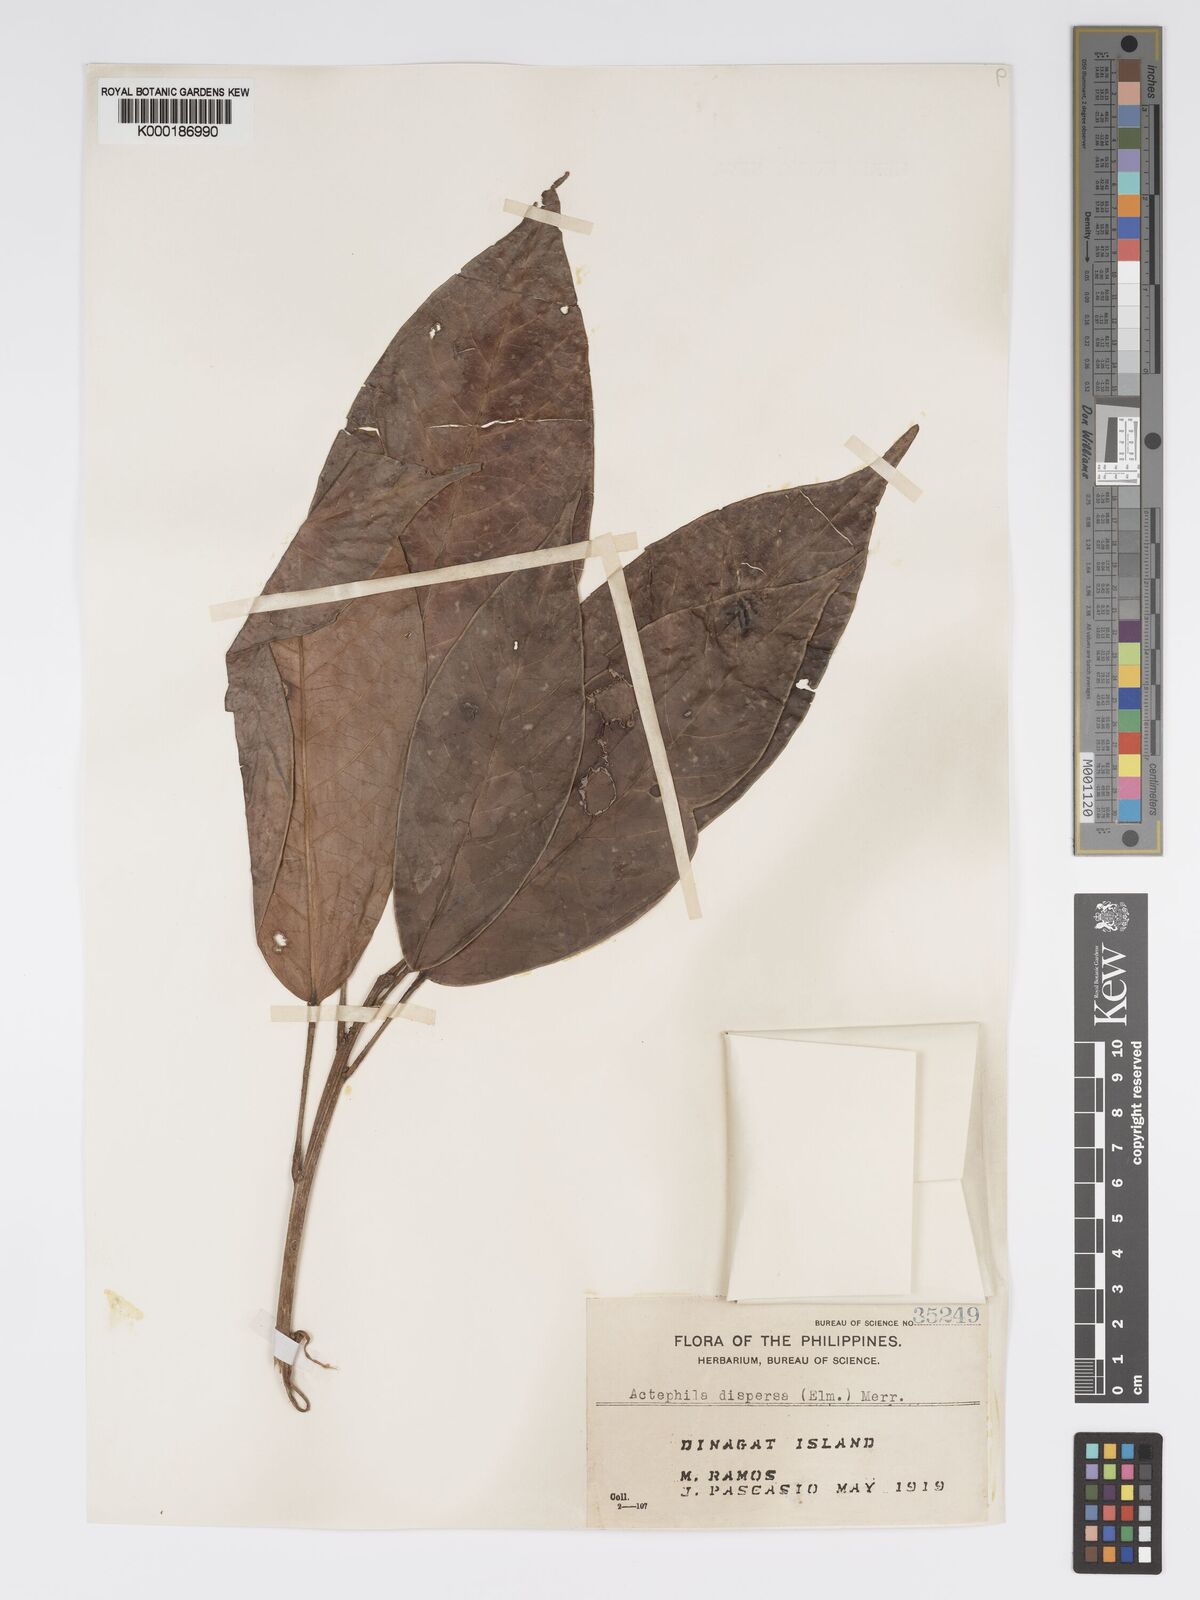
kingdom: Plantae
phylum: Tracheophyta
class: Magnoliopsida
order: Malpighiales
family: Phyllanthaceae
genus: Actephila
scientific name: Actephila
